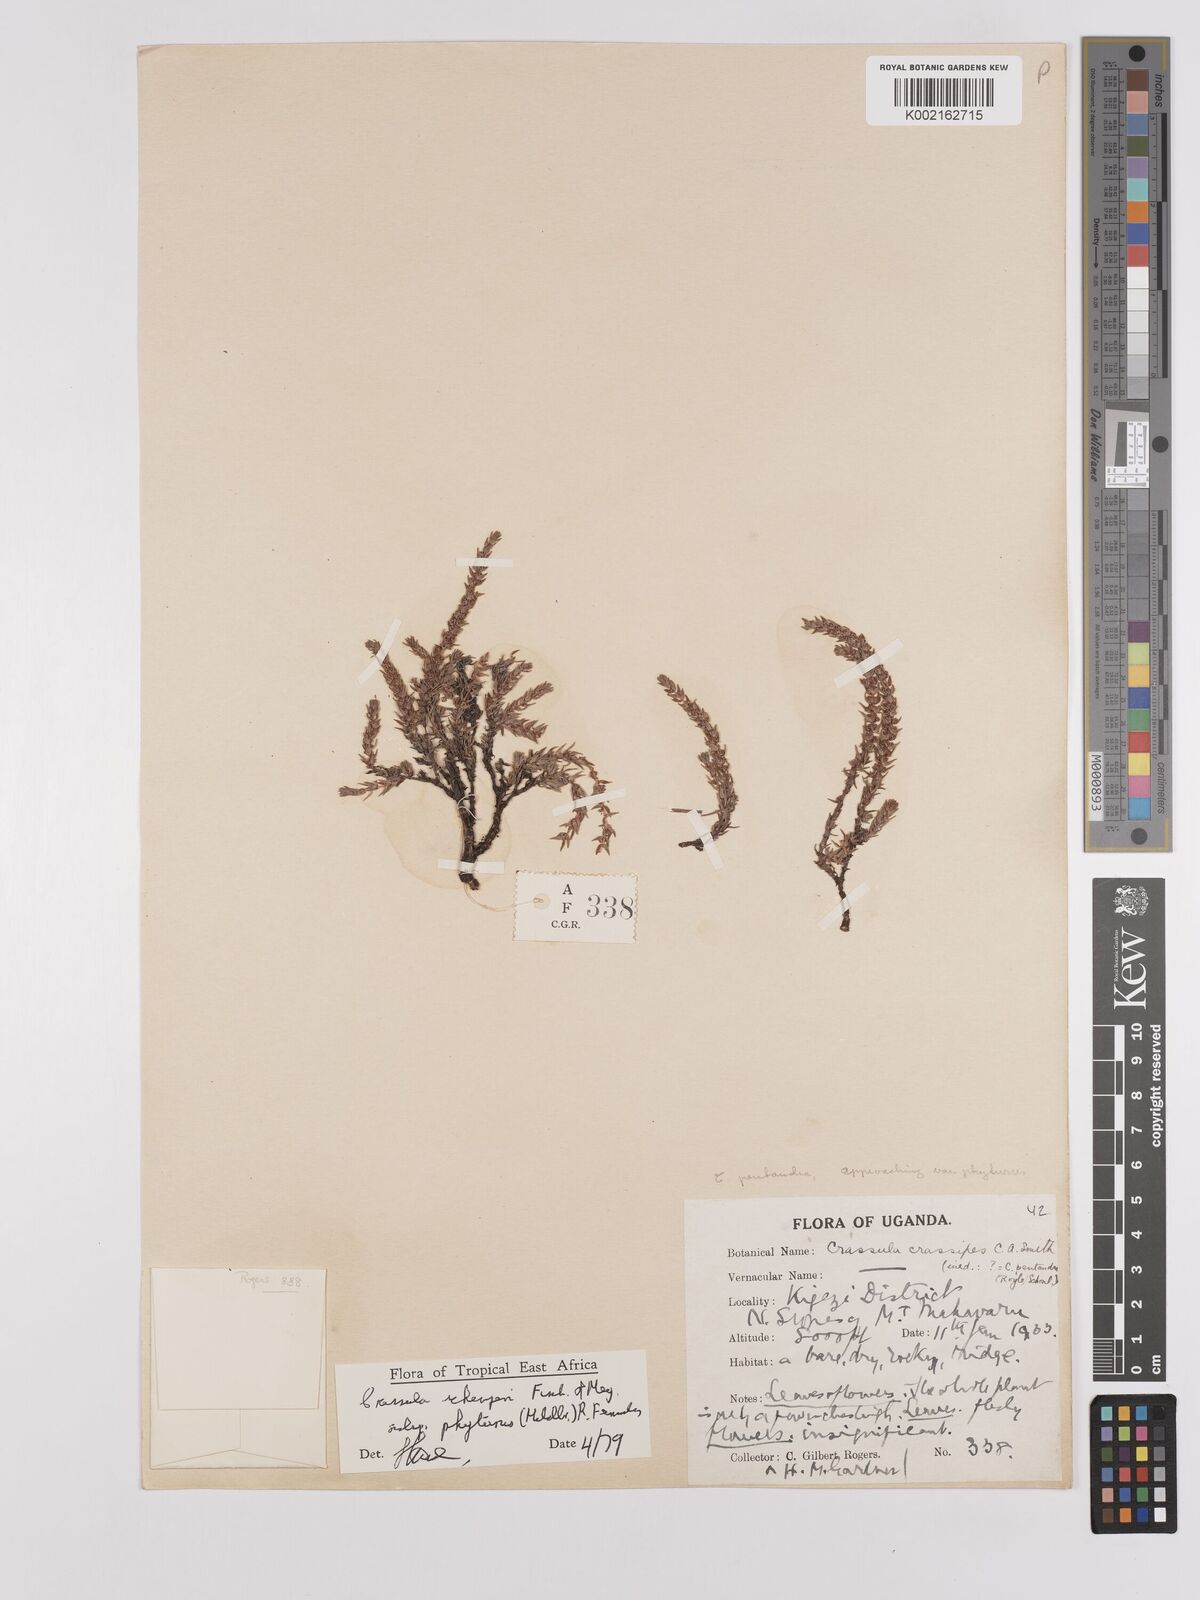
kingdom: Plantae
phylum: Tracheophyta
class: Magnoliopsida
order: Saxifragales
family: Crassulaceae
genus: Crassula
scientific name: Crassula schimperi
